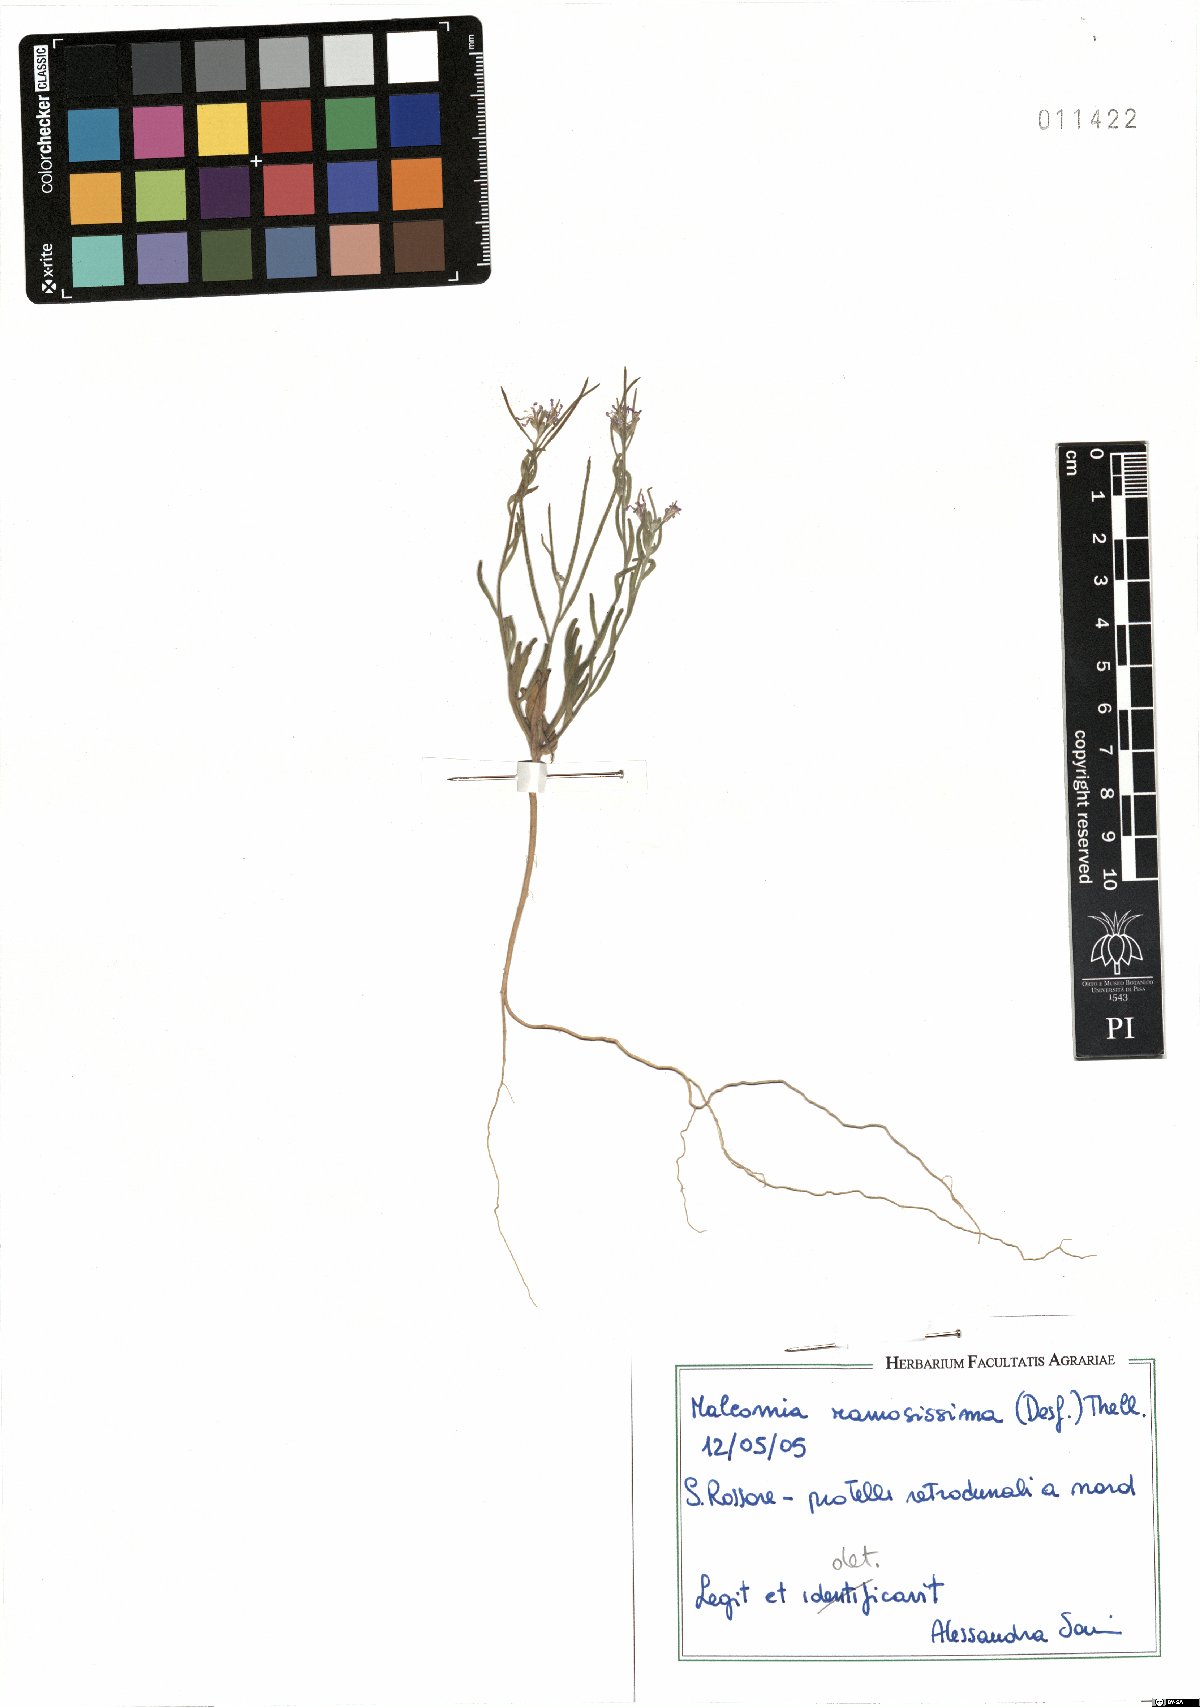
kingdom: Plantae
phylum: Tracheophyta
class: Magnoliopsida
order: Brassicales
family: Brassicaceae
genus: Marcuskochia
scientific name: Marcuskochia ramosissima
